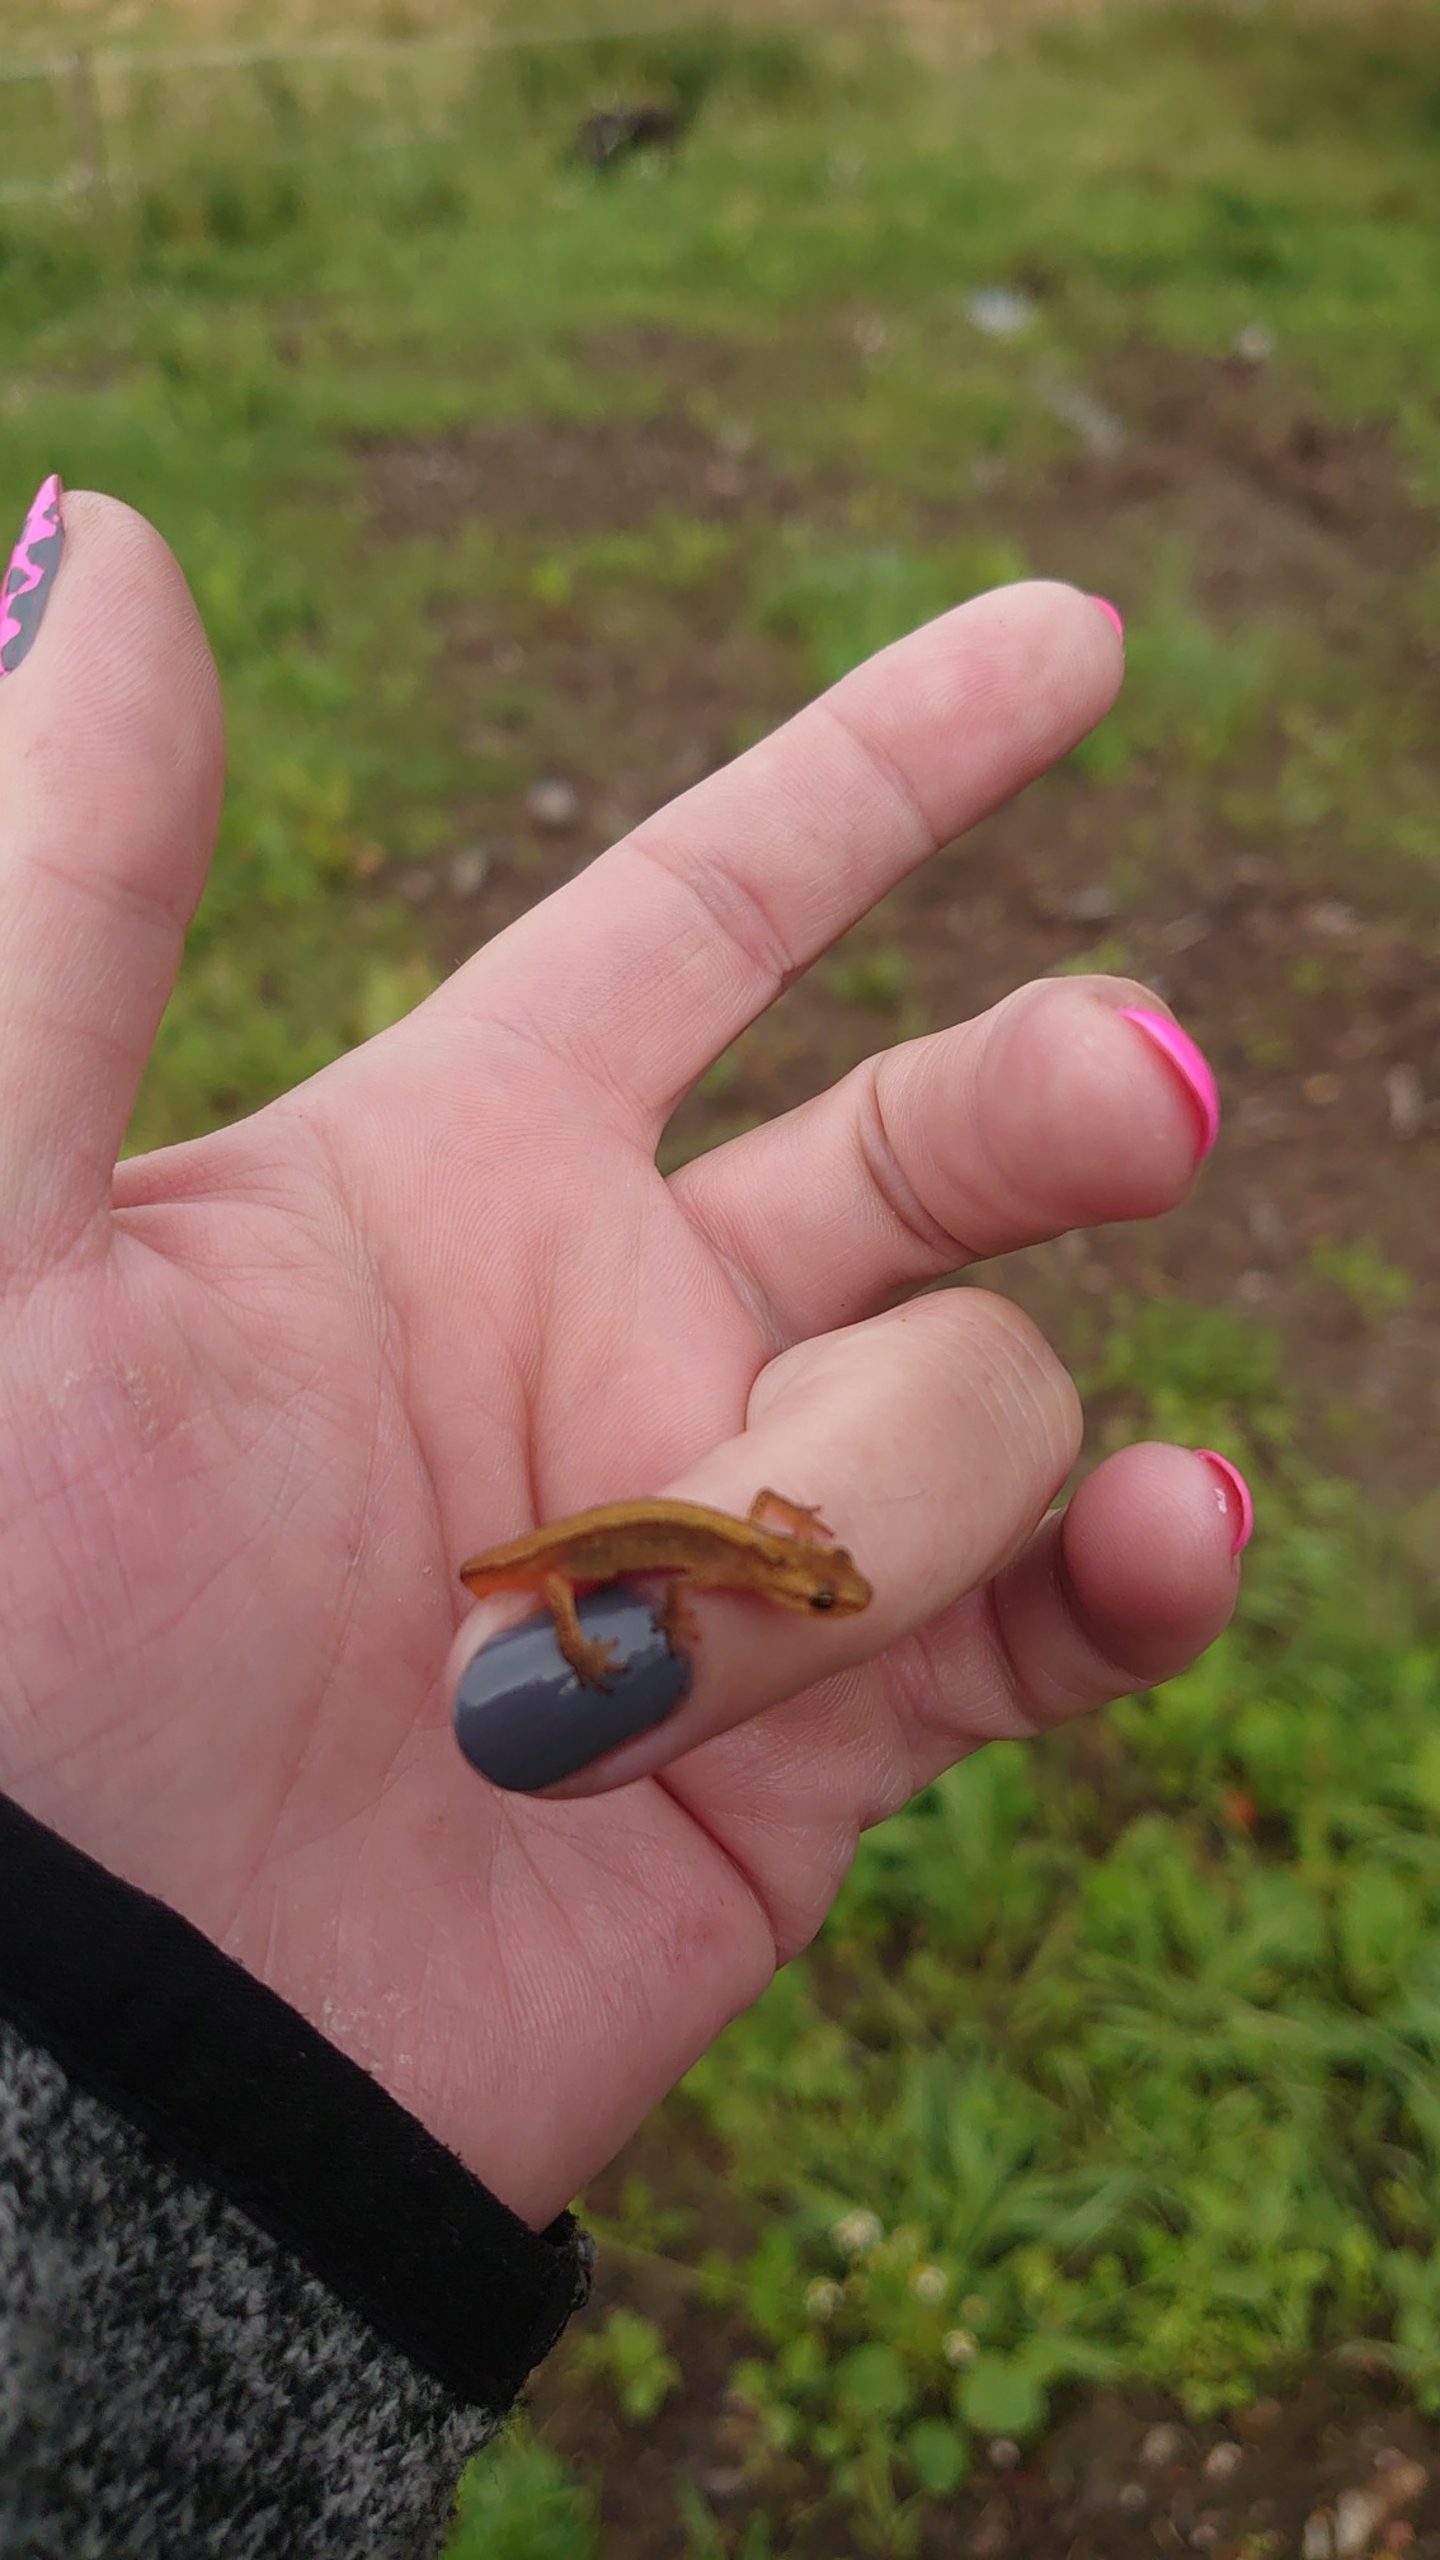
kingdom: Animalia
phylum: Chordata
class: Amphibia
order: Caudata
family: Salamandridae
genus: Lissotriton
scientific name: Lissotriton vulgaris
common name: Lille vandsalamander
